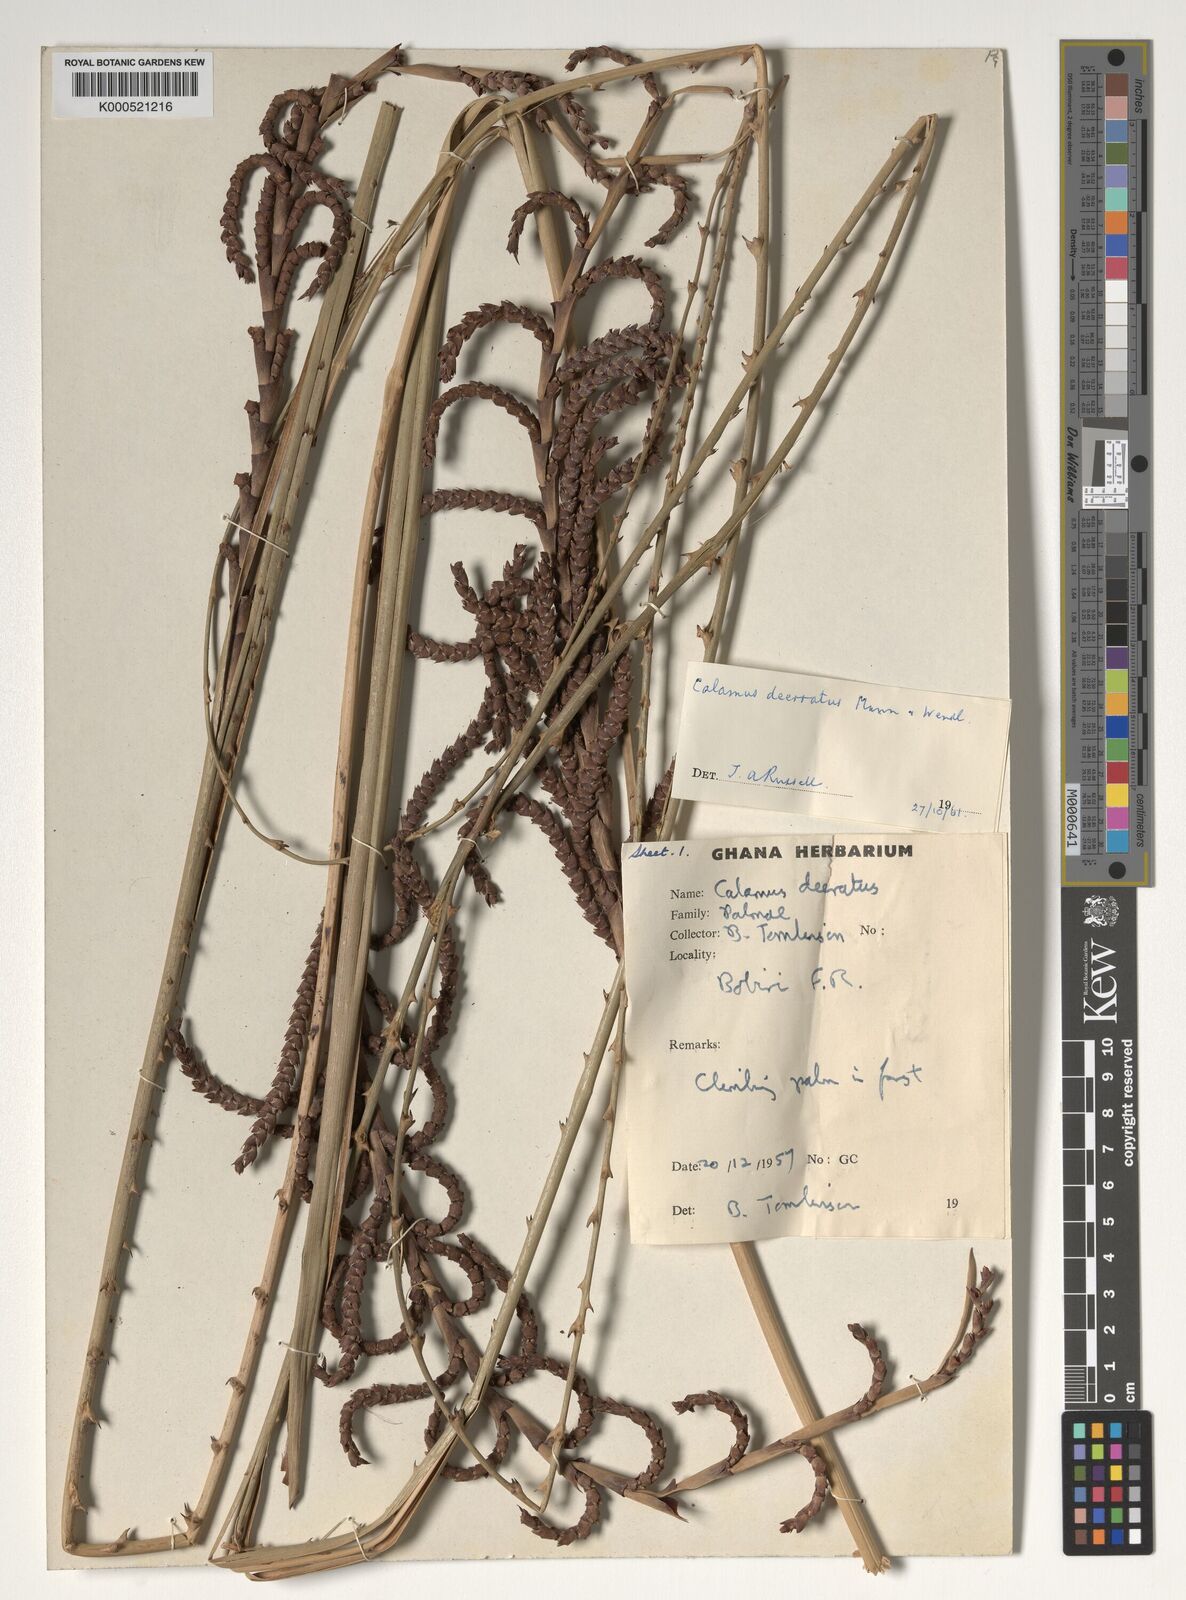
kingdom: Plantae
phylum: Tracheophyta
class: Liliopsida
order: Arecales
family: Arecaceae
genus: Calamus
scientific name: Calamus deerratus
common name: Rattan
